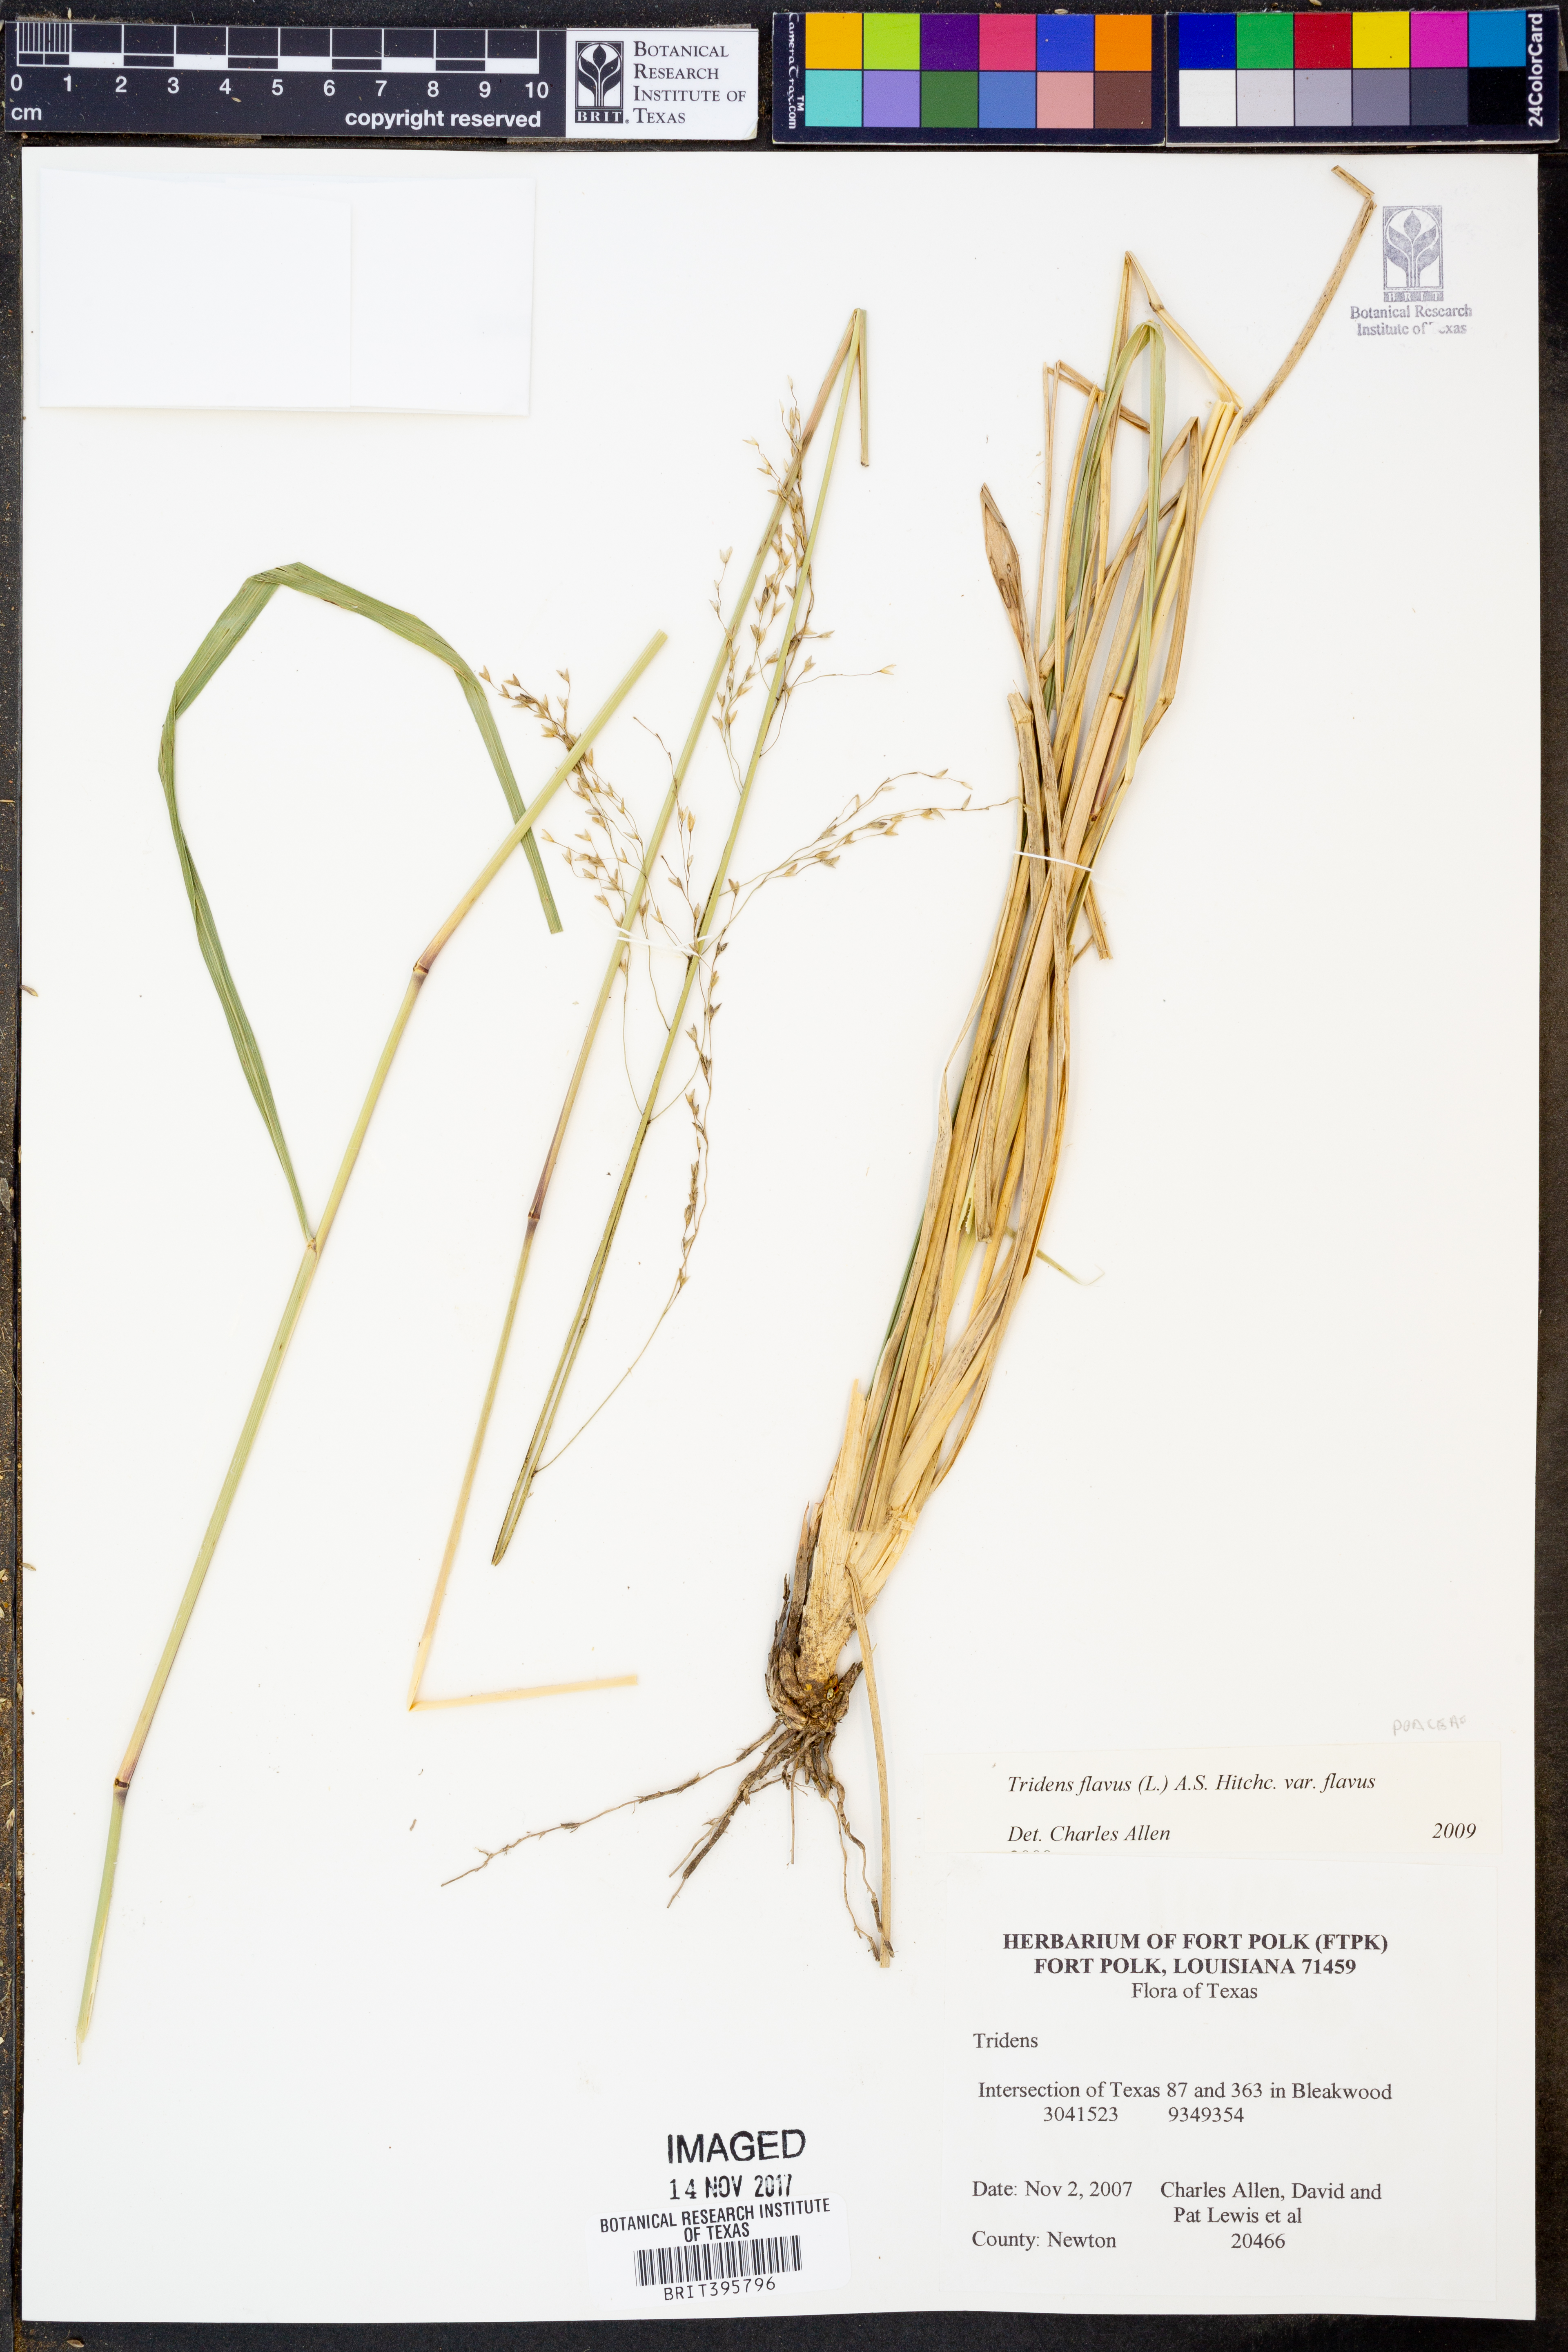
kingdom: Plantae
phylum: Tracheophyta
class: Liliopsida
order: Poales
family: Poaceae
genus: Tridens
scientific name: Tridens flavus
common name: Purpletop
